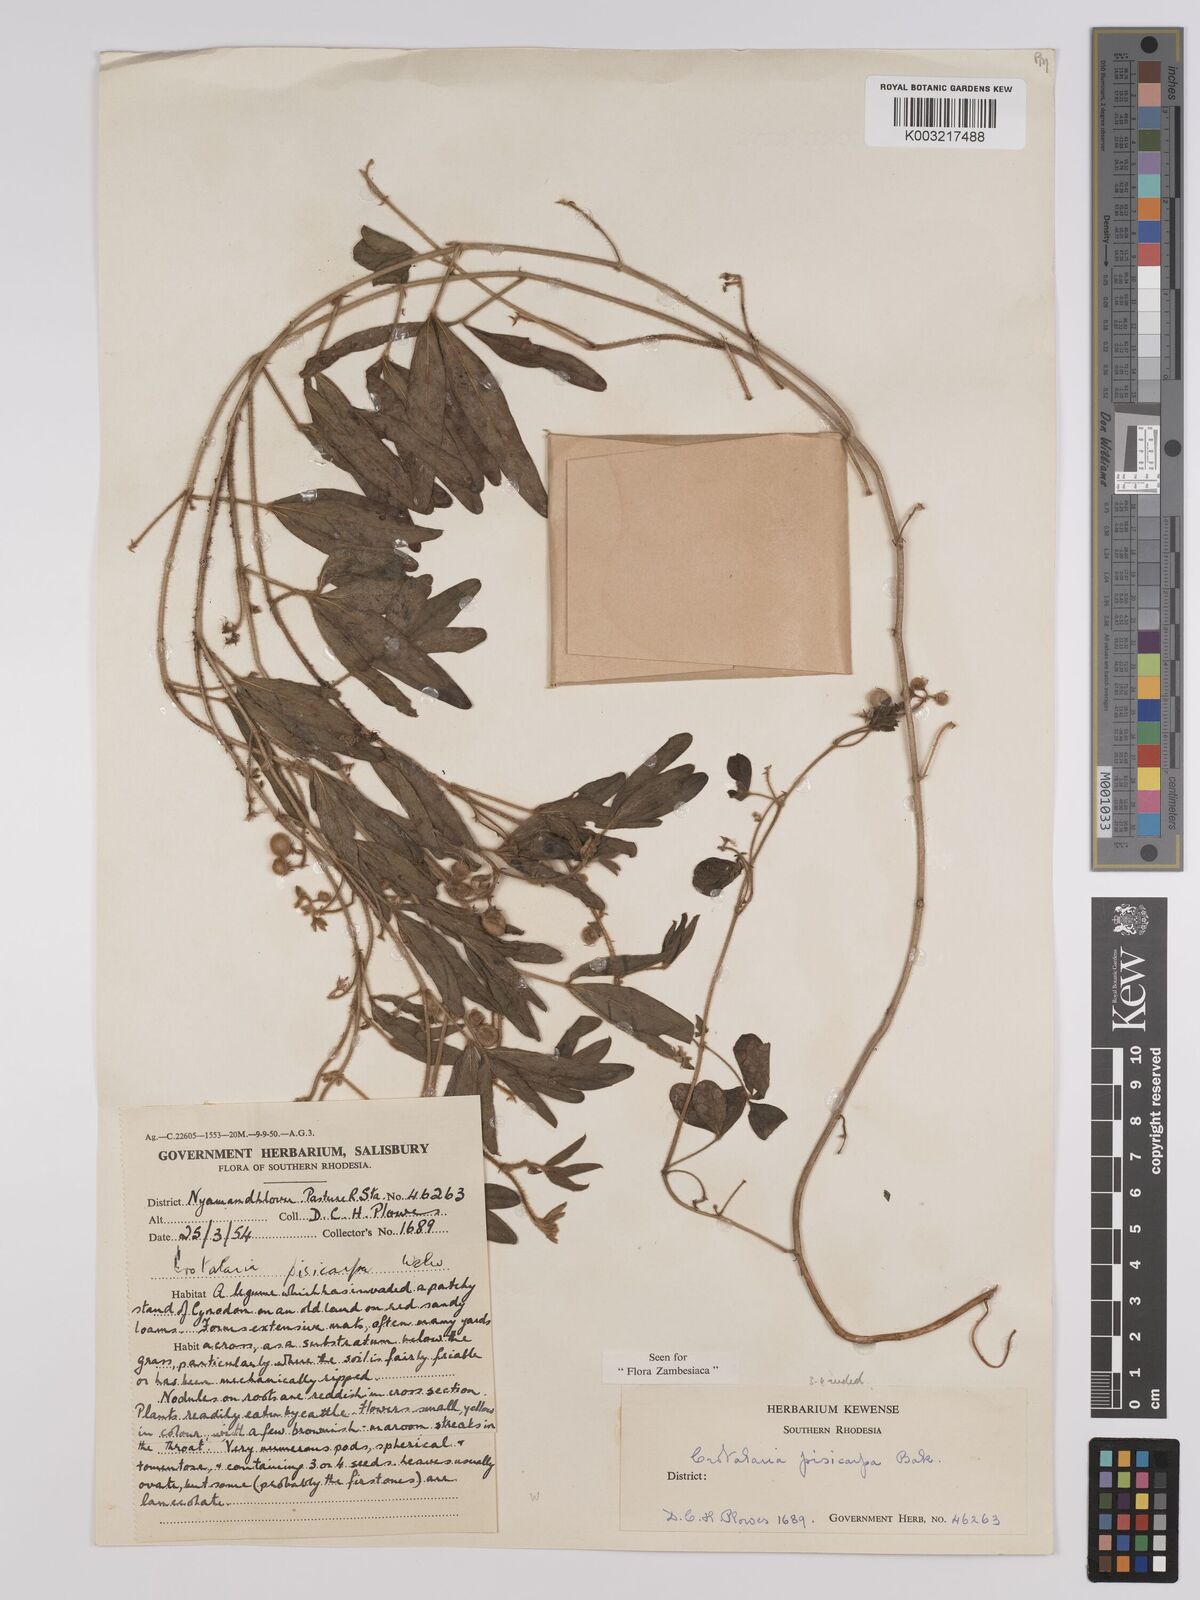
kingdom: Plantae
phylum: Tracheophyta
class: Magnoliopsida
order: Fabales
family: Fabaceae
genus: Crotalaria
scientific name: Crotalaria pisicarpa
